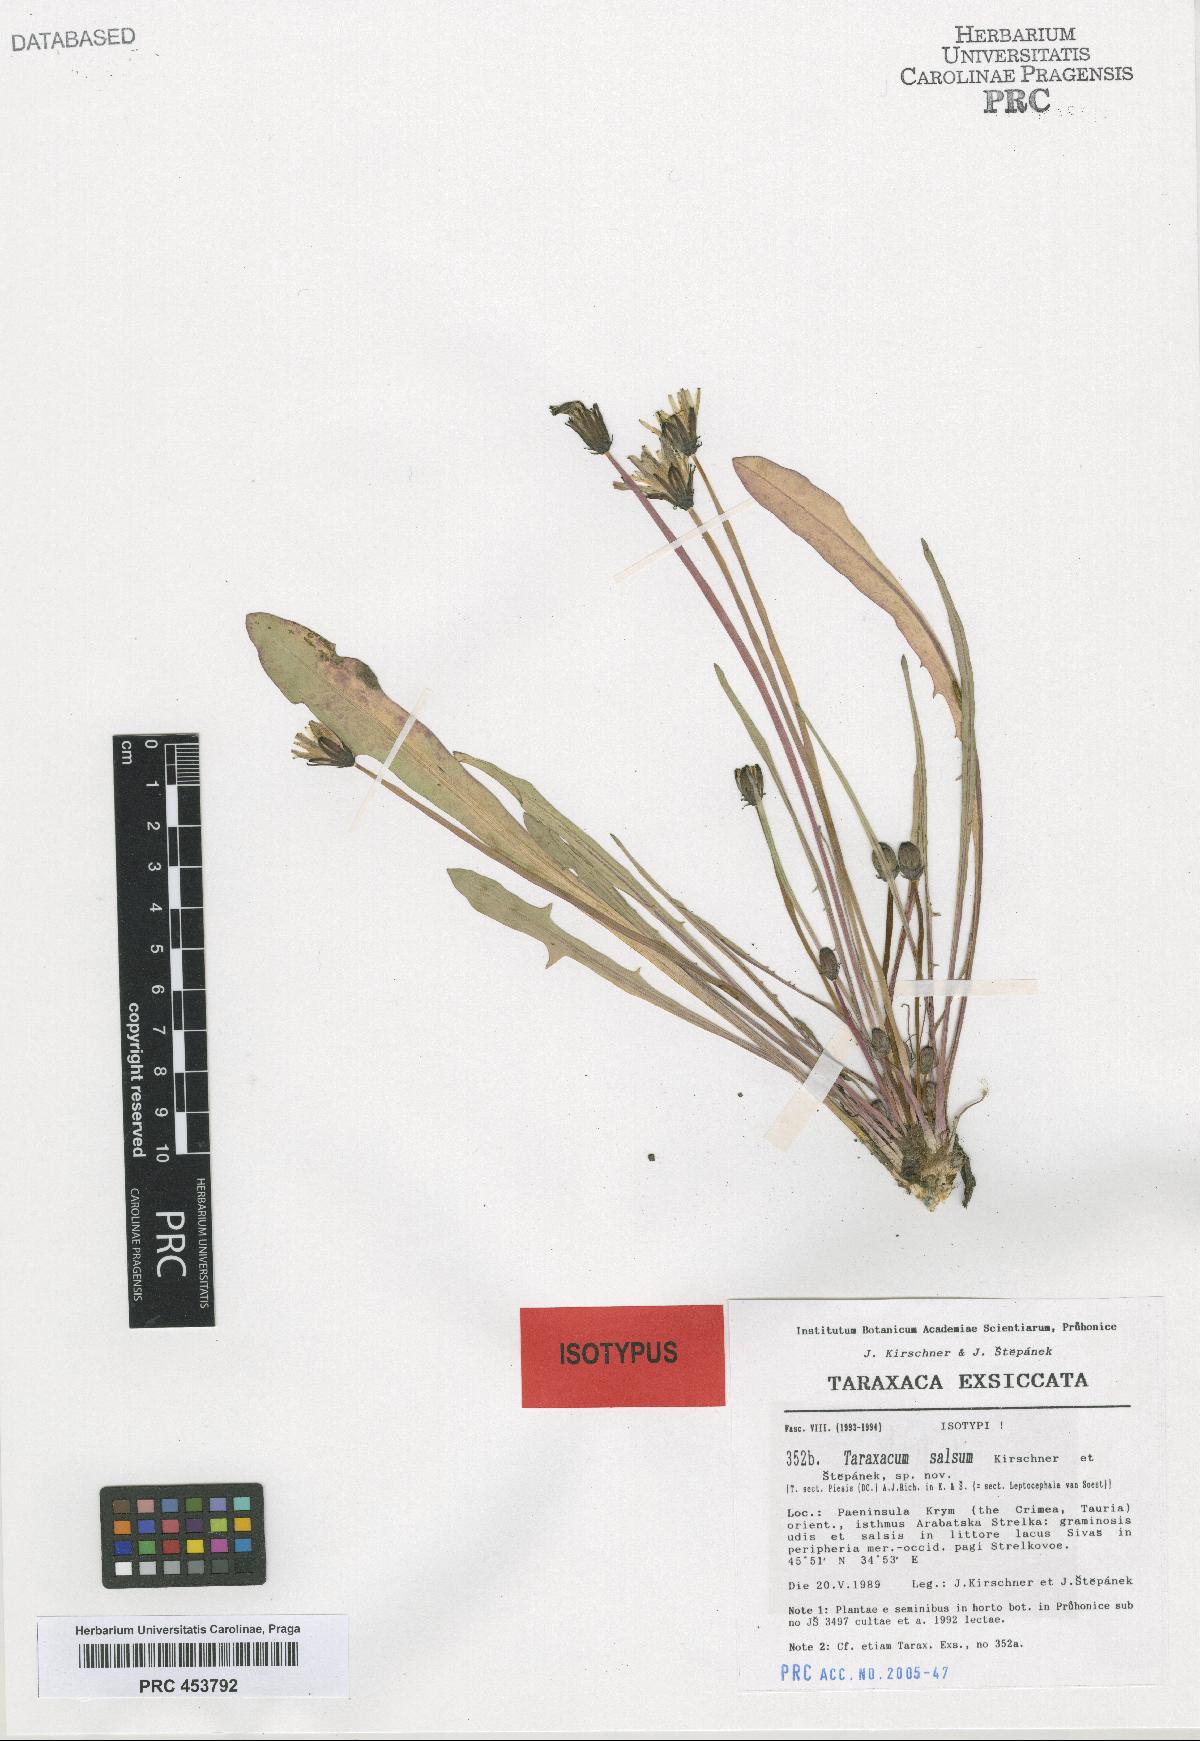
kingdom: Plantae
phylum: Tracheophyta
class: Magnoliopsida
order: Asterales
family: Asteraceae
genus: Taraxacum
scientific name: Taraxacum salsum
